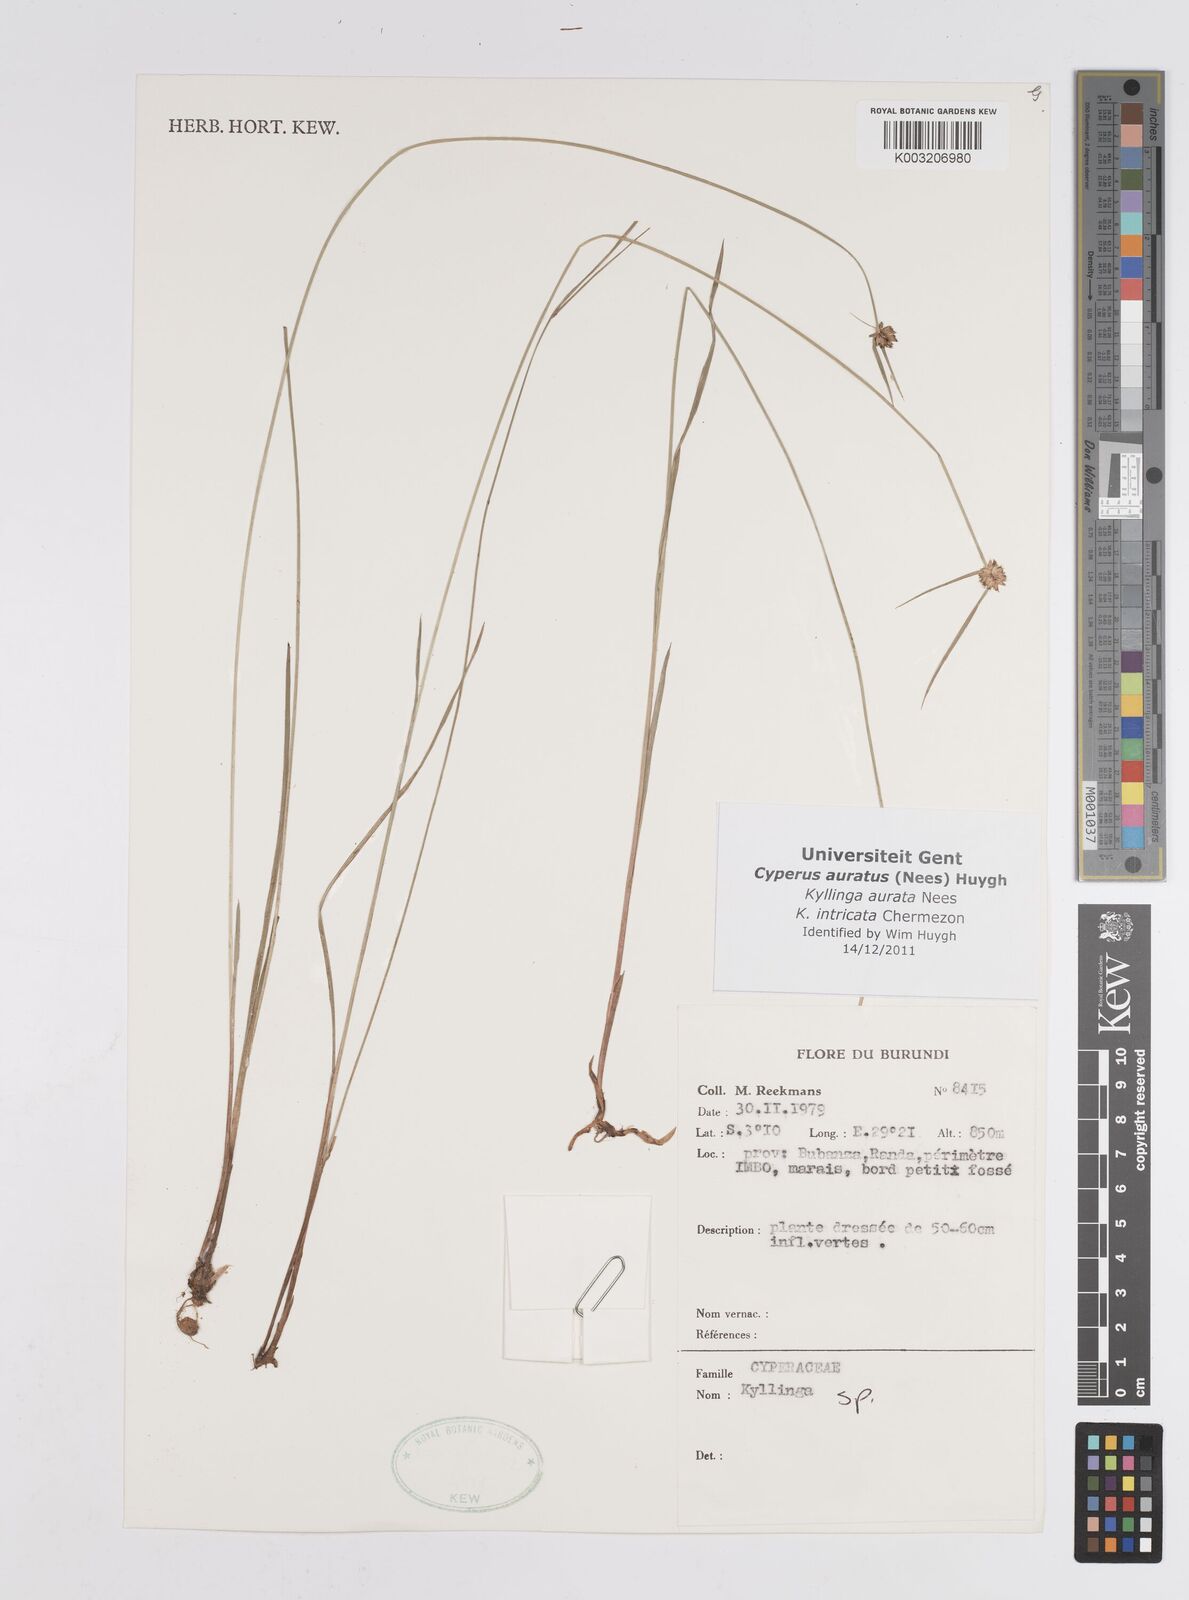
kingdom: Plantae
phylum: Tracheophyta
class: Liliopsida
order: Poales
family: Cyperaceae
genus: Cyperus
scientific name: Cyperus auratus
